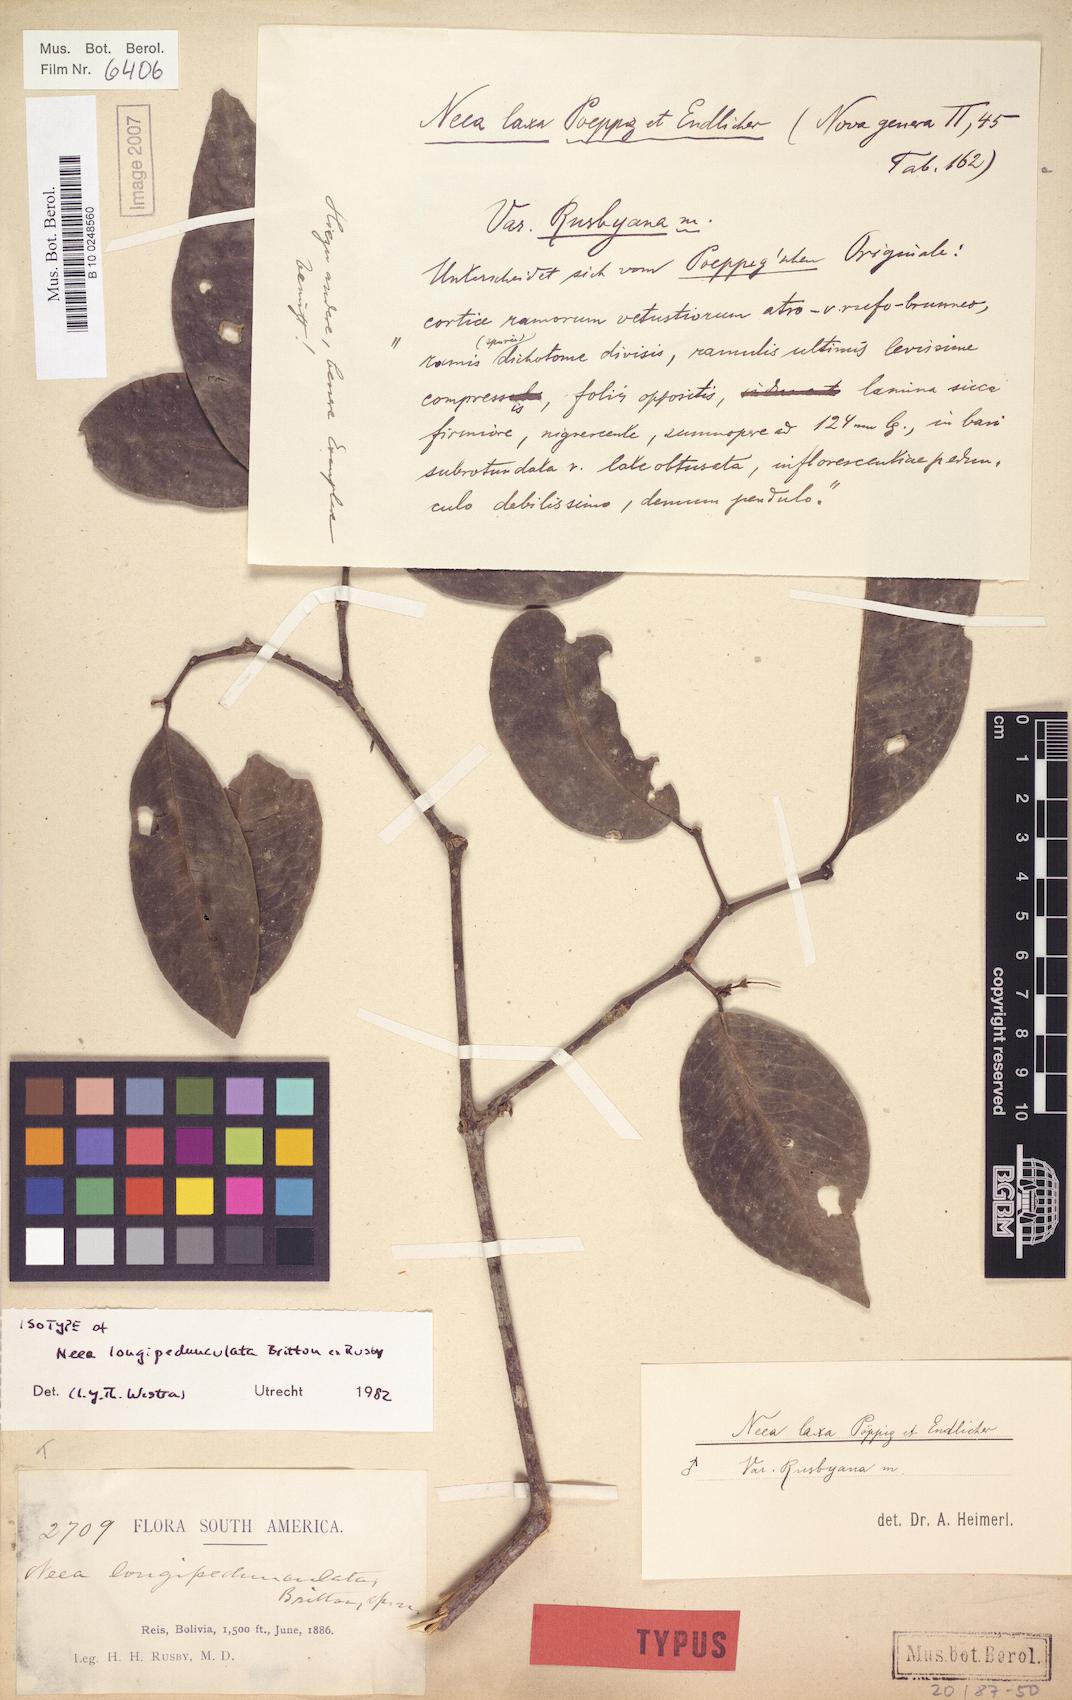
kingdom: Plantae
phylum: Tracheophyta
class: Magnoliopsida
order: Caryophyllales
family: Nyctaginaceae
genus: Neea
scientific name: Neea longipedunculata
